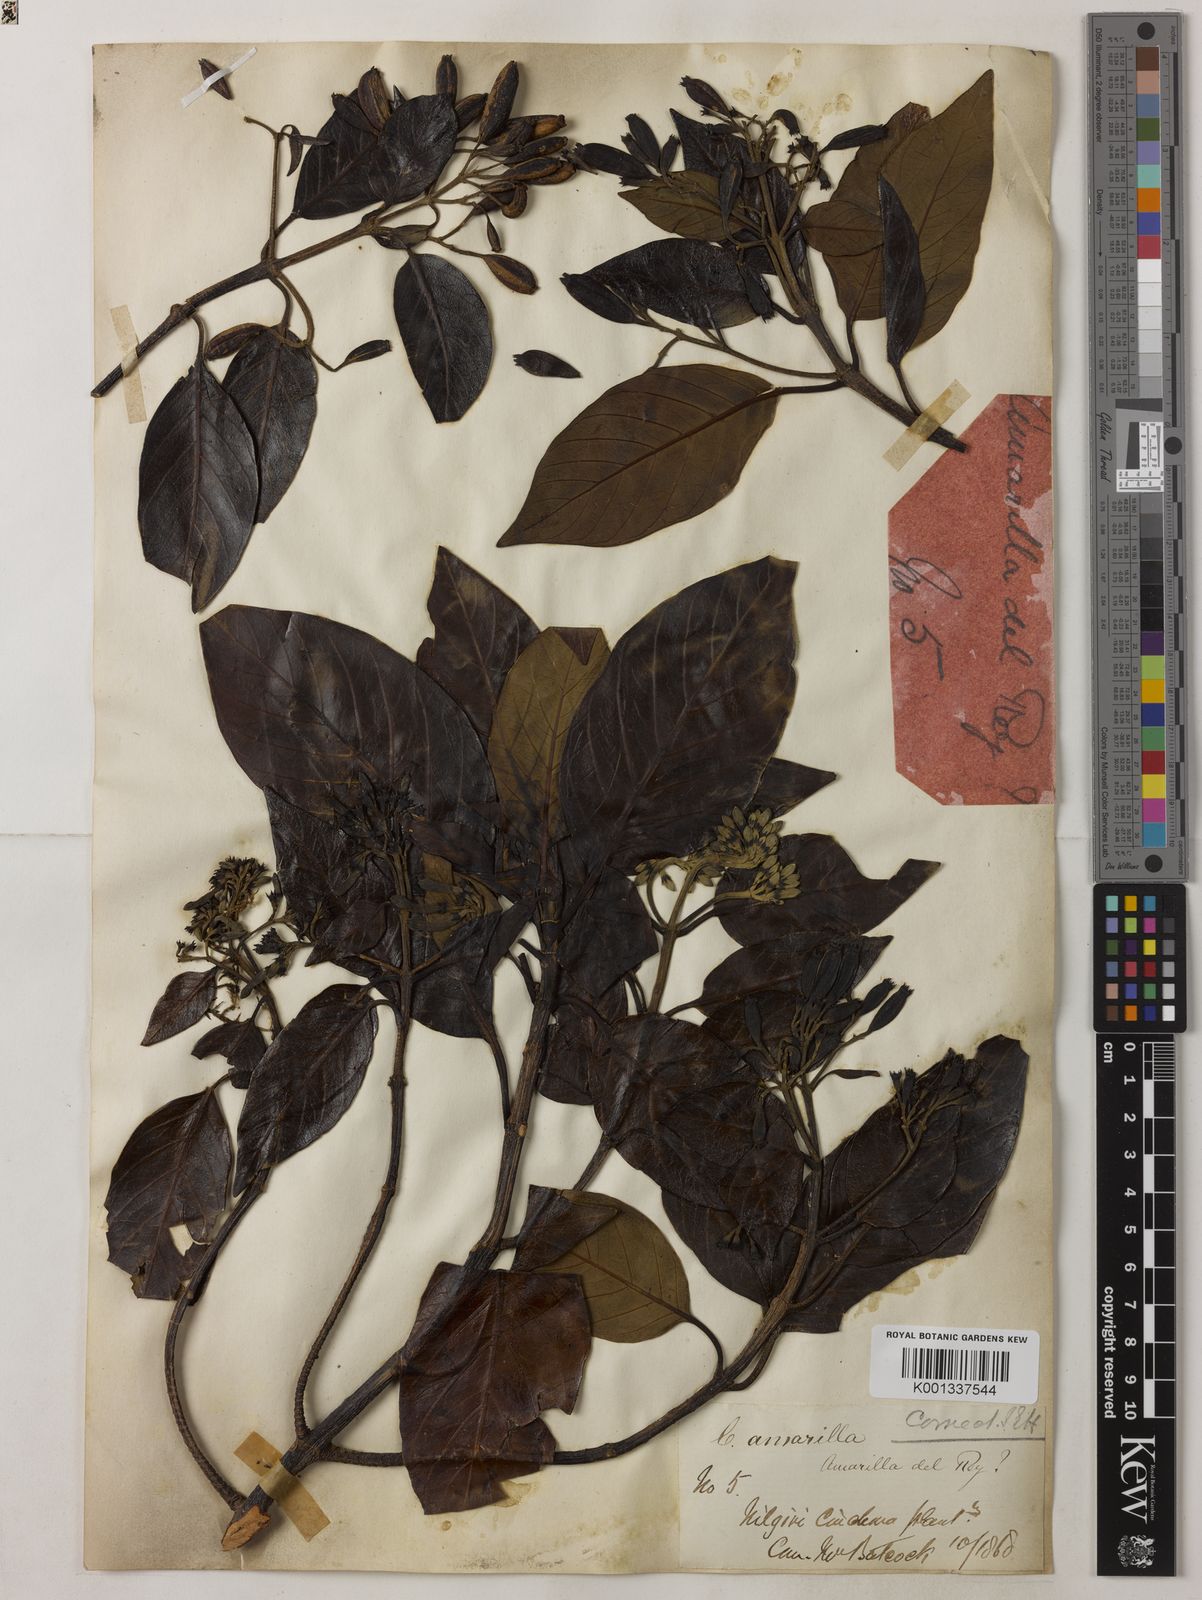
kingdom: Plantae
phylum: Tracheophyta
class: Magnoliopsida
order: Gentianales
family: Rubiaceae
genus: Cinchona
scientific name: Cinchona
